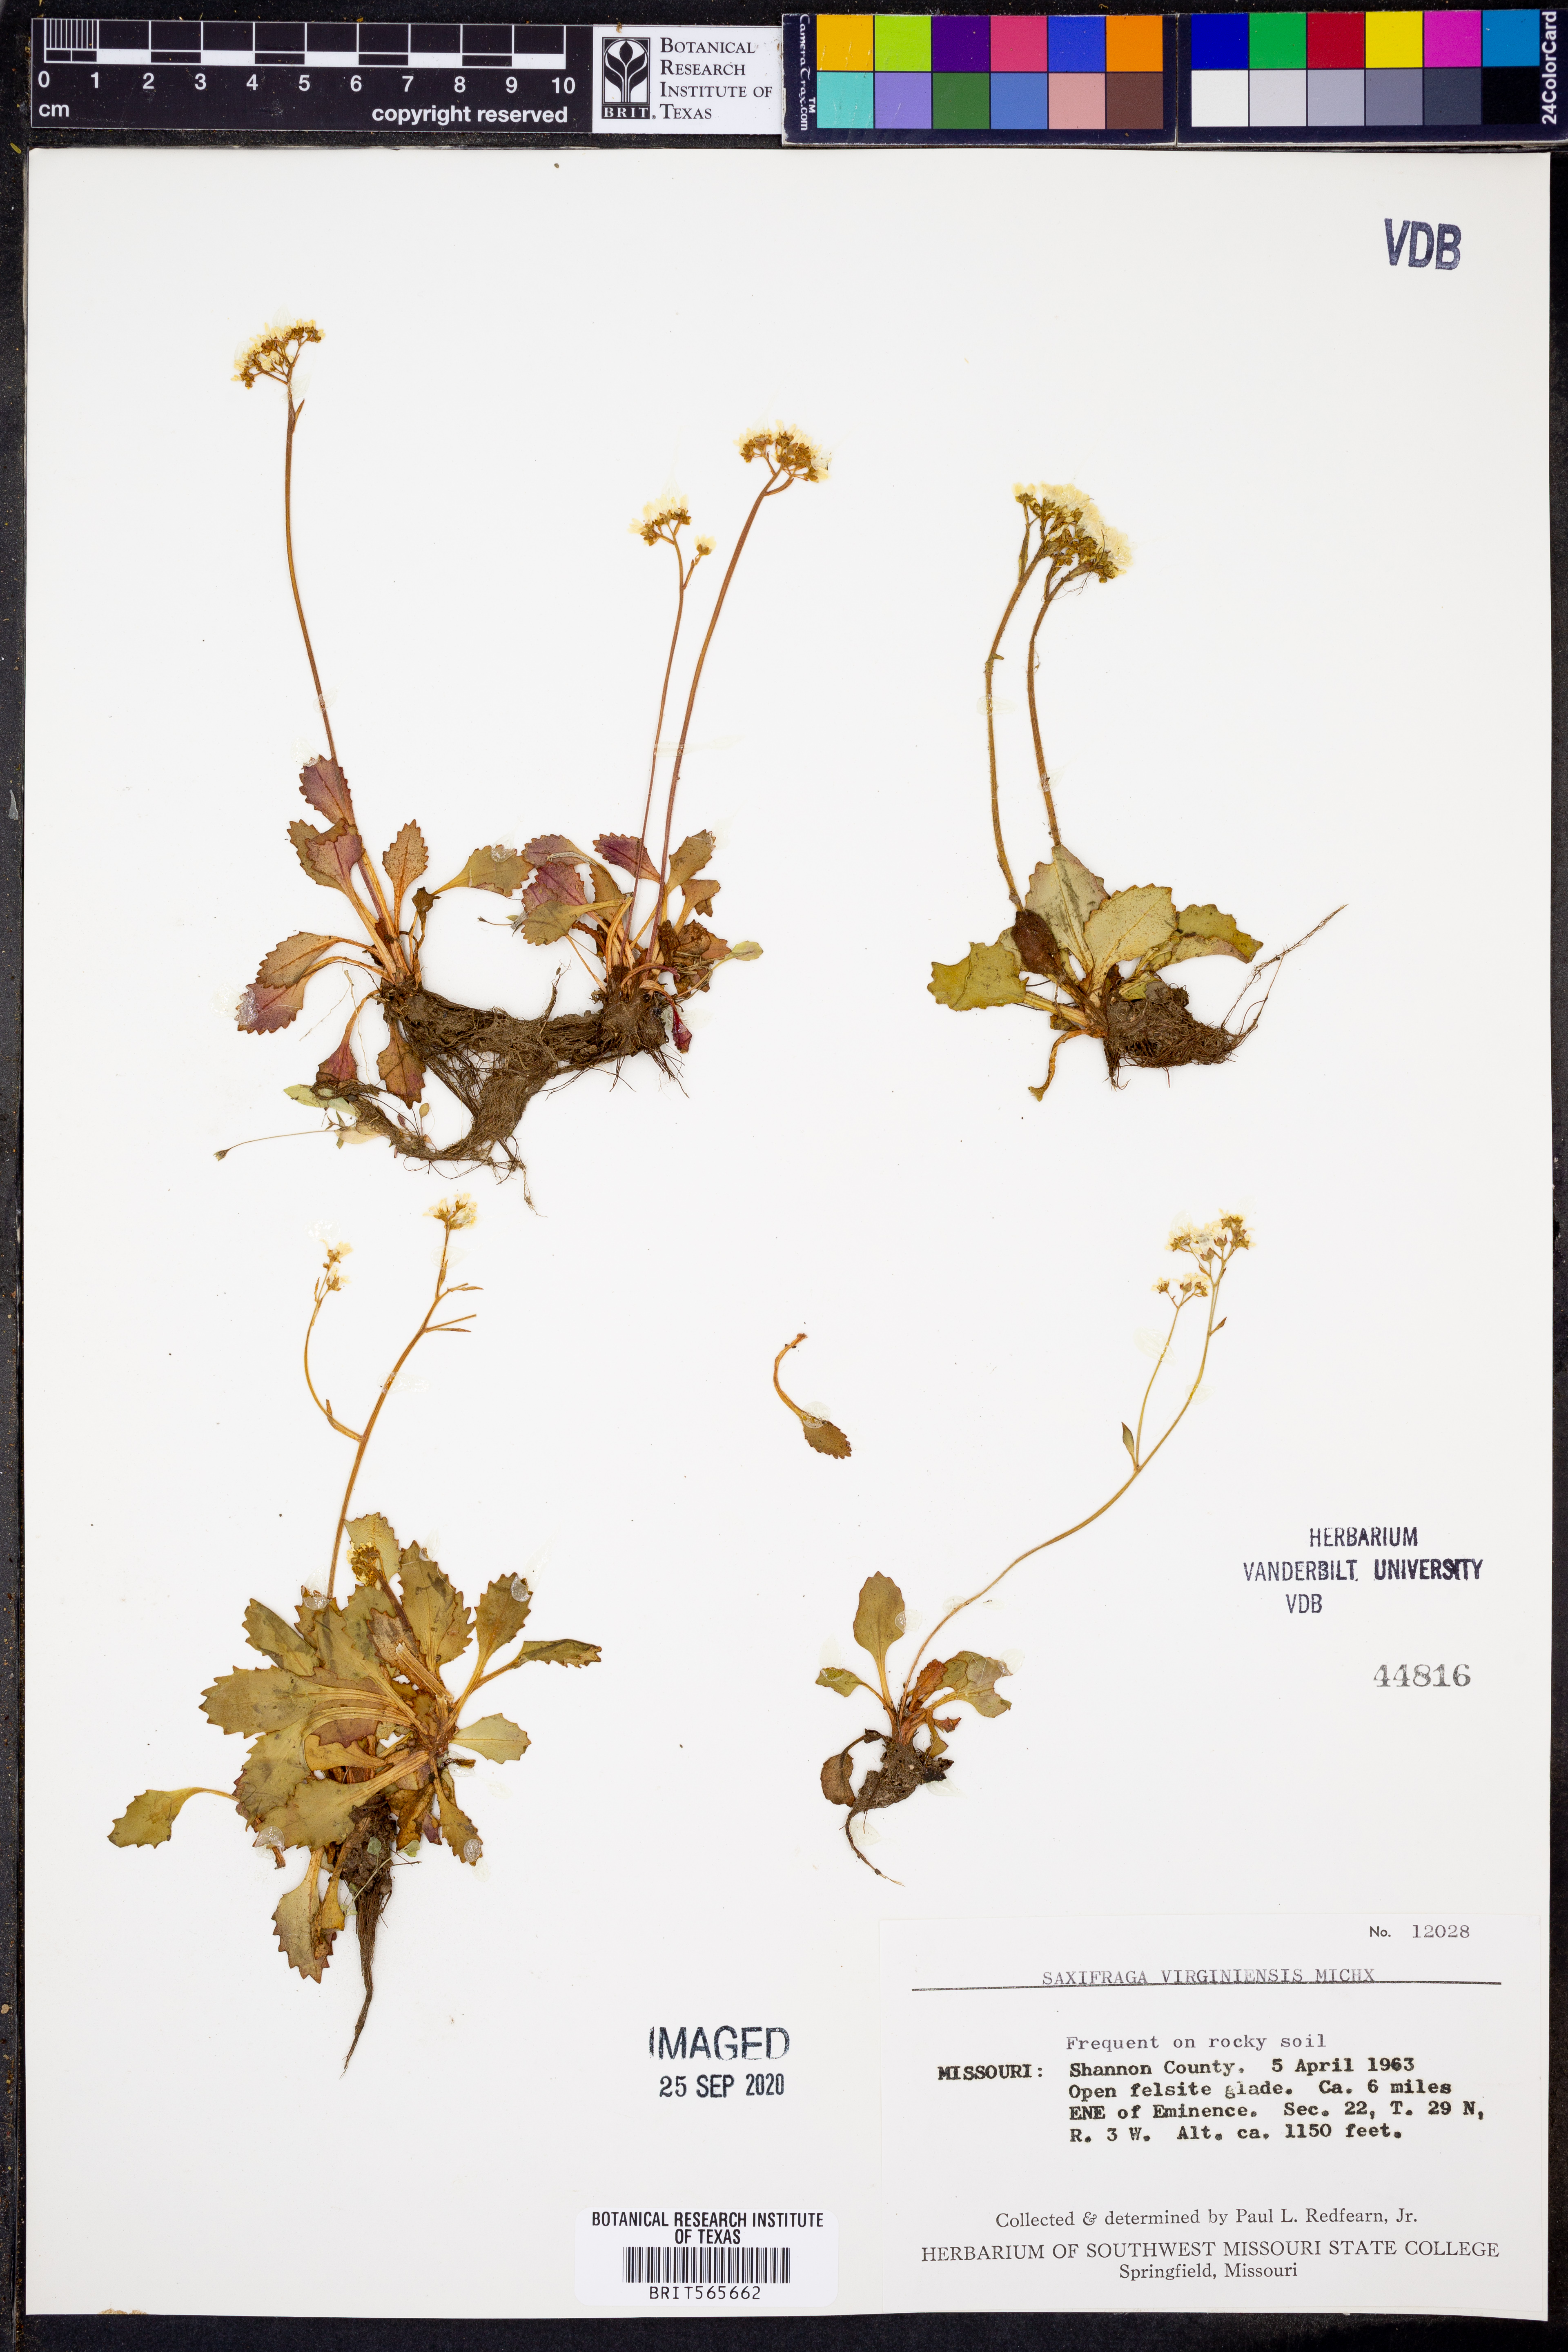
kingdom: Plantae
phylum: Tracheophyta
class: Magnoliopsida
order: Saxifragales
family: Saxifragaceae
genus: Micranthes
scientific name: Micranthes virginiensis
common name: Early saxifrage
